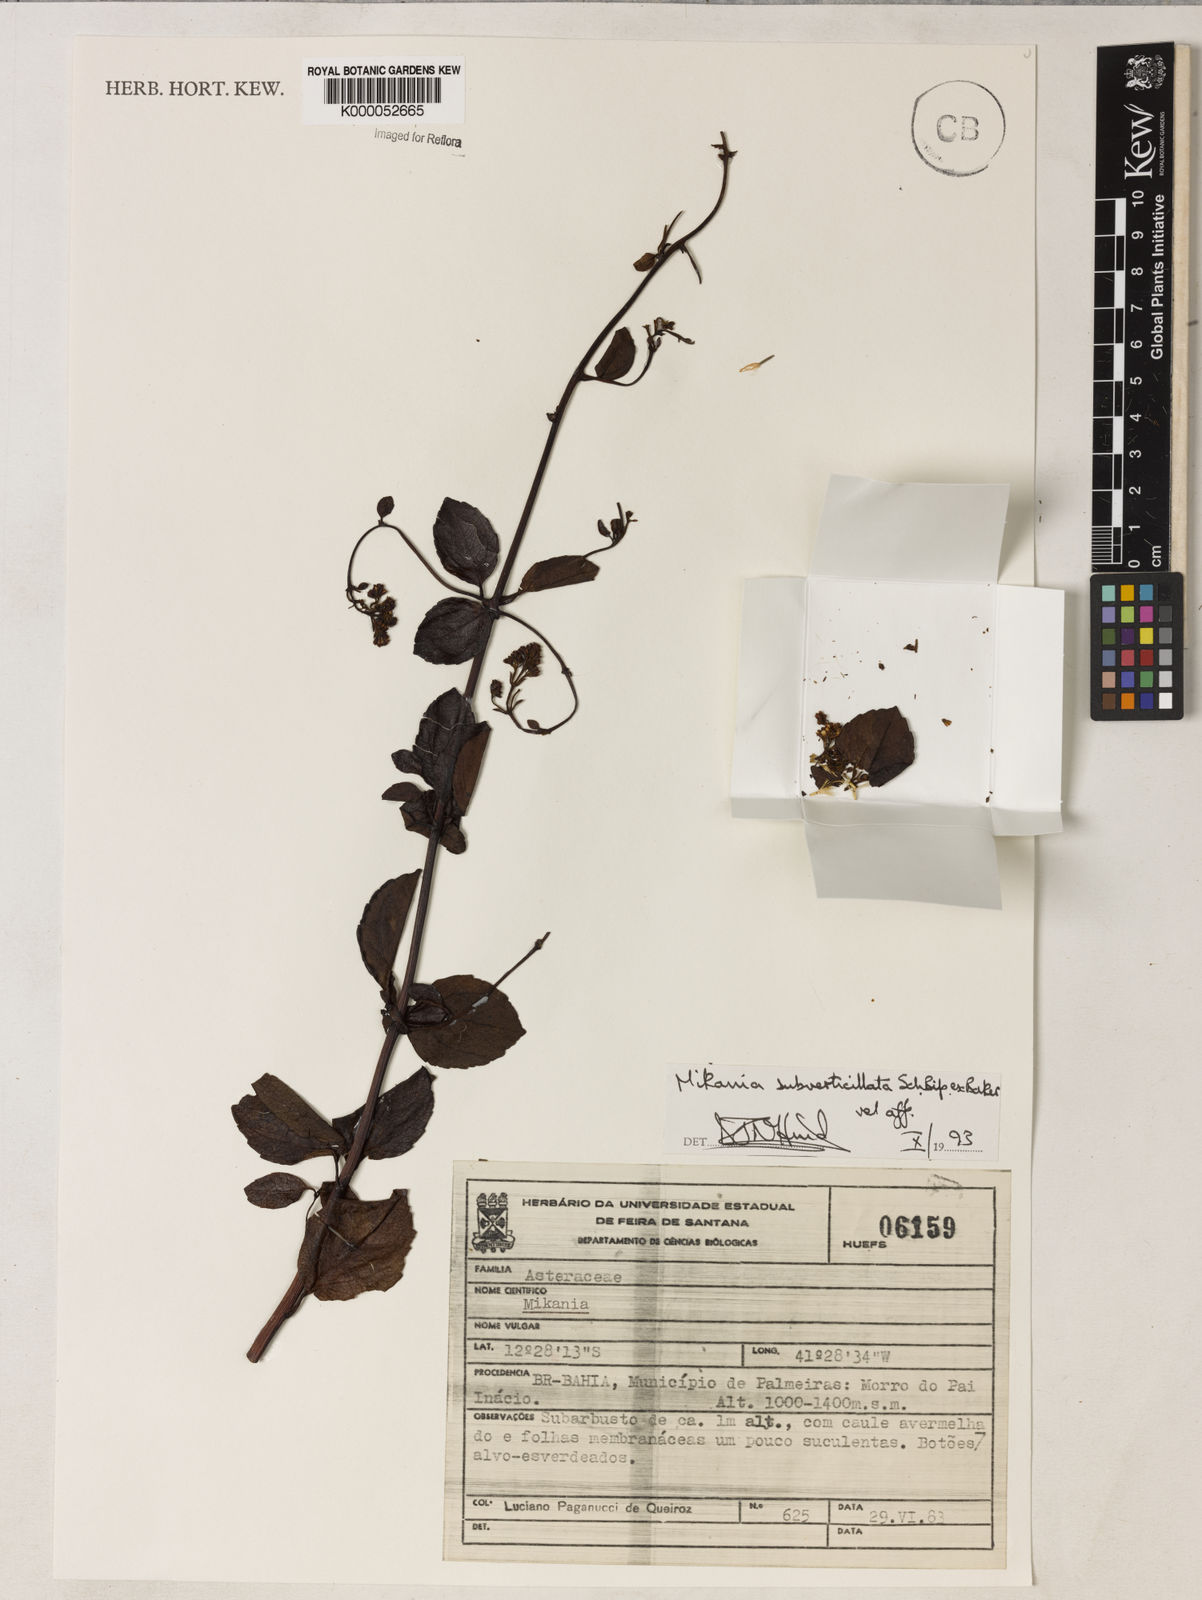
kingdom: Plantae
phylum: Tracheophyta
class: Magnoliopsida
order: Asterales
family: Asteraceae
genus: Mikania
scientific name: Mikania subverticillata
